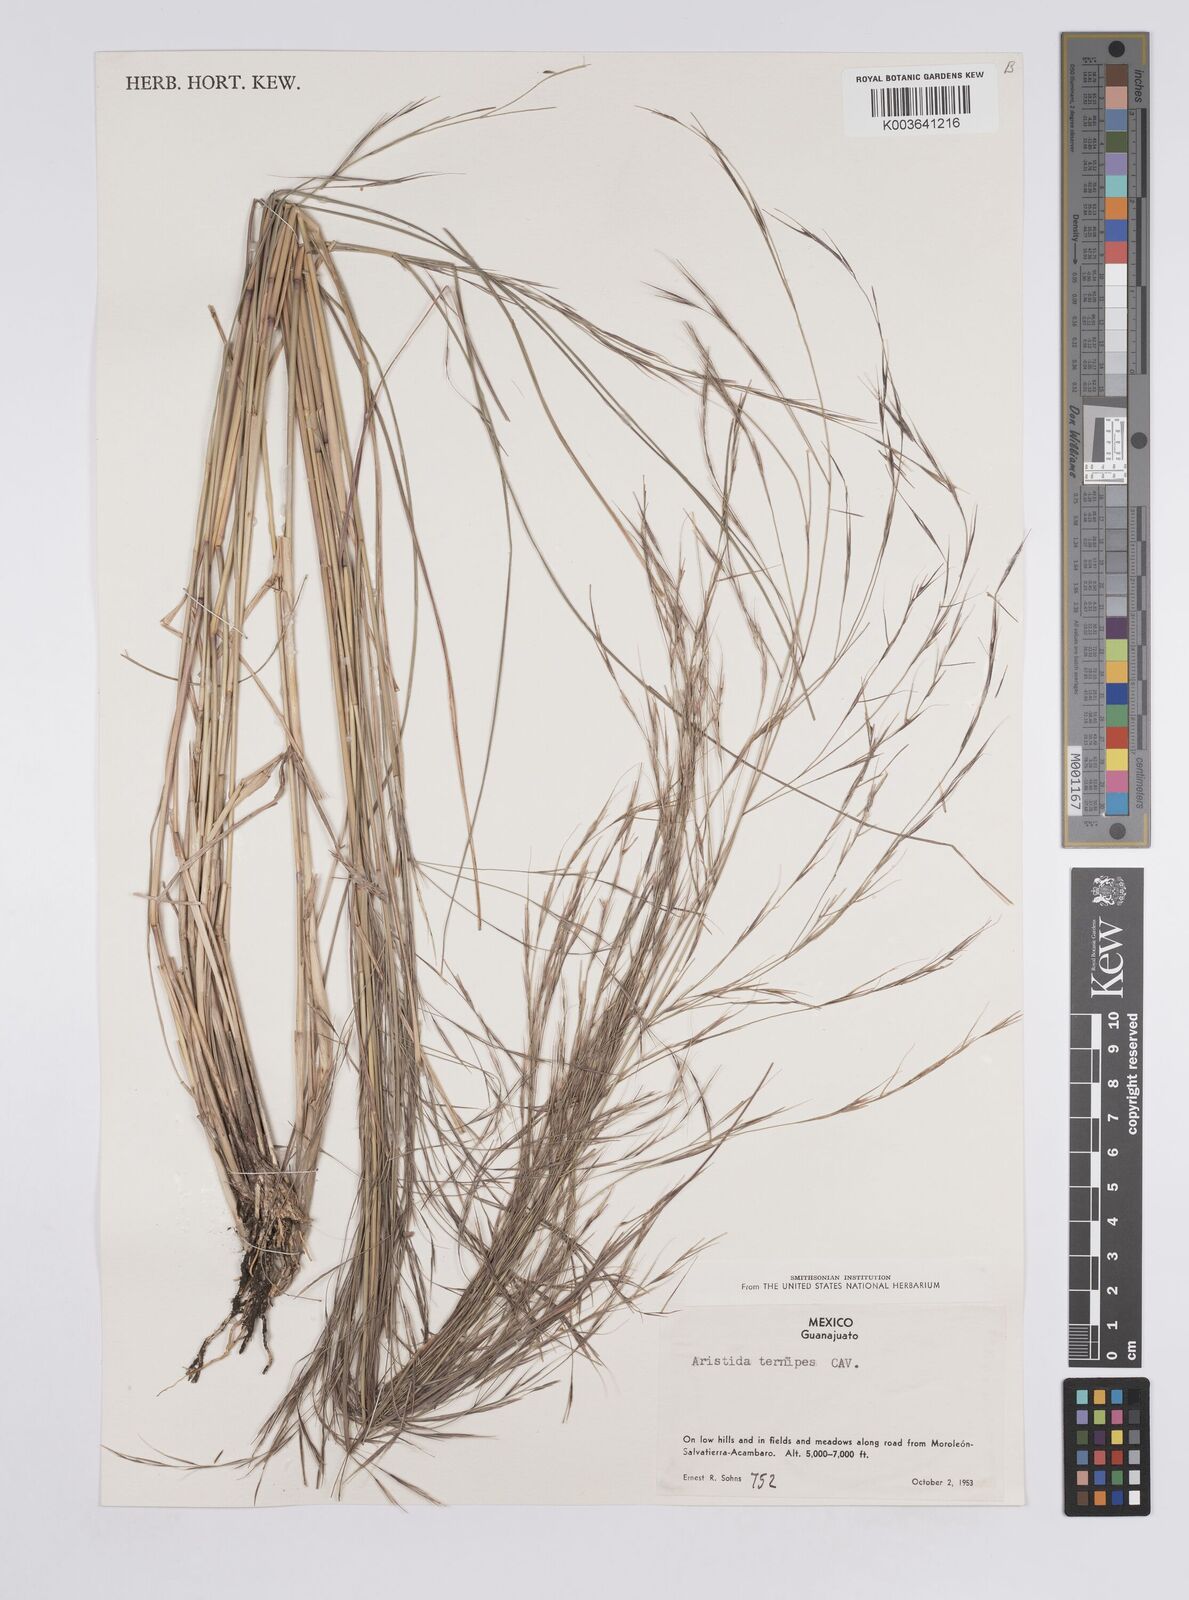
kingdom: Plantae
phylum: Tracheophyta
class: Liliopsida
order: Poales
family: Poaceae
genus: Aristida
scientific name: Aristida
